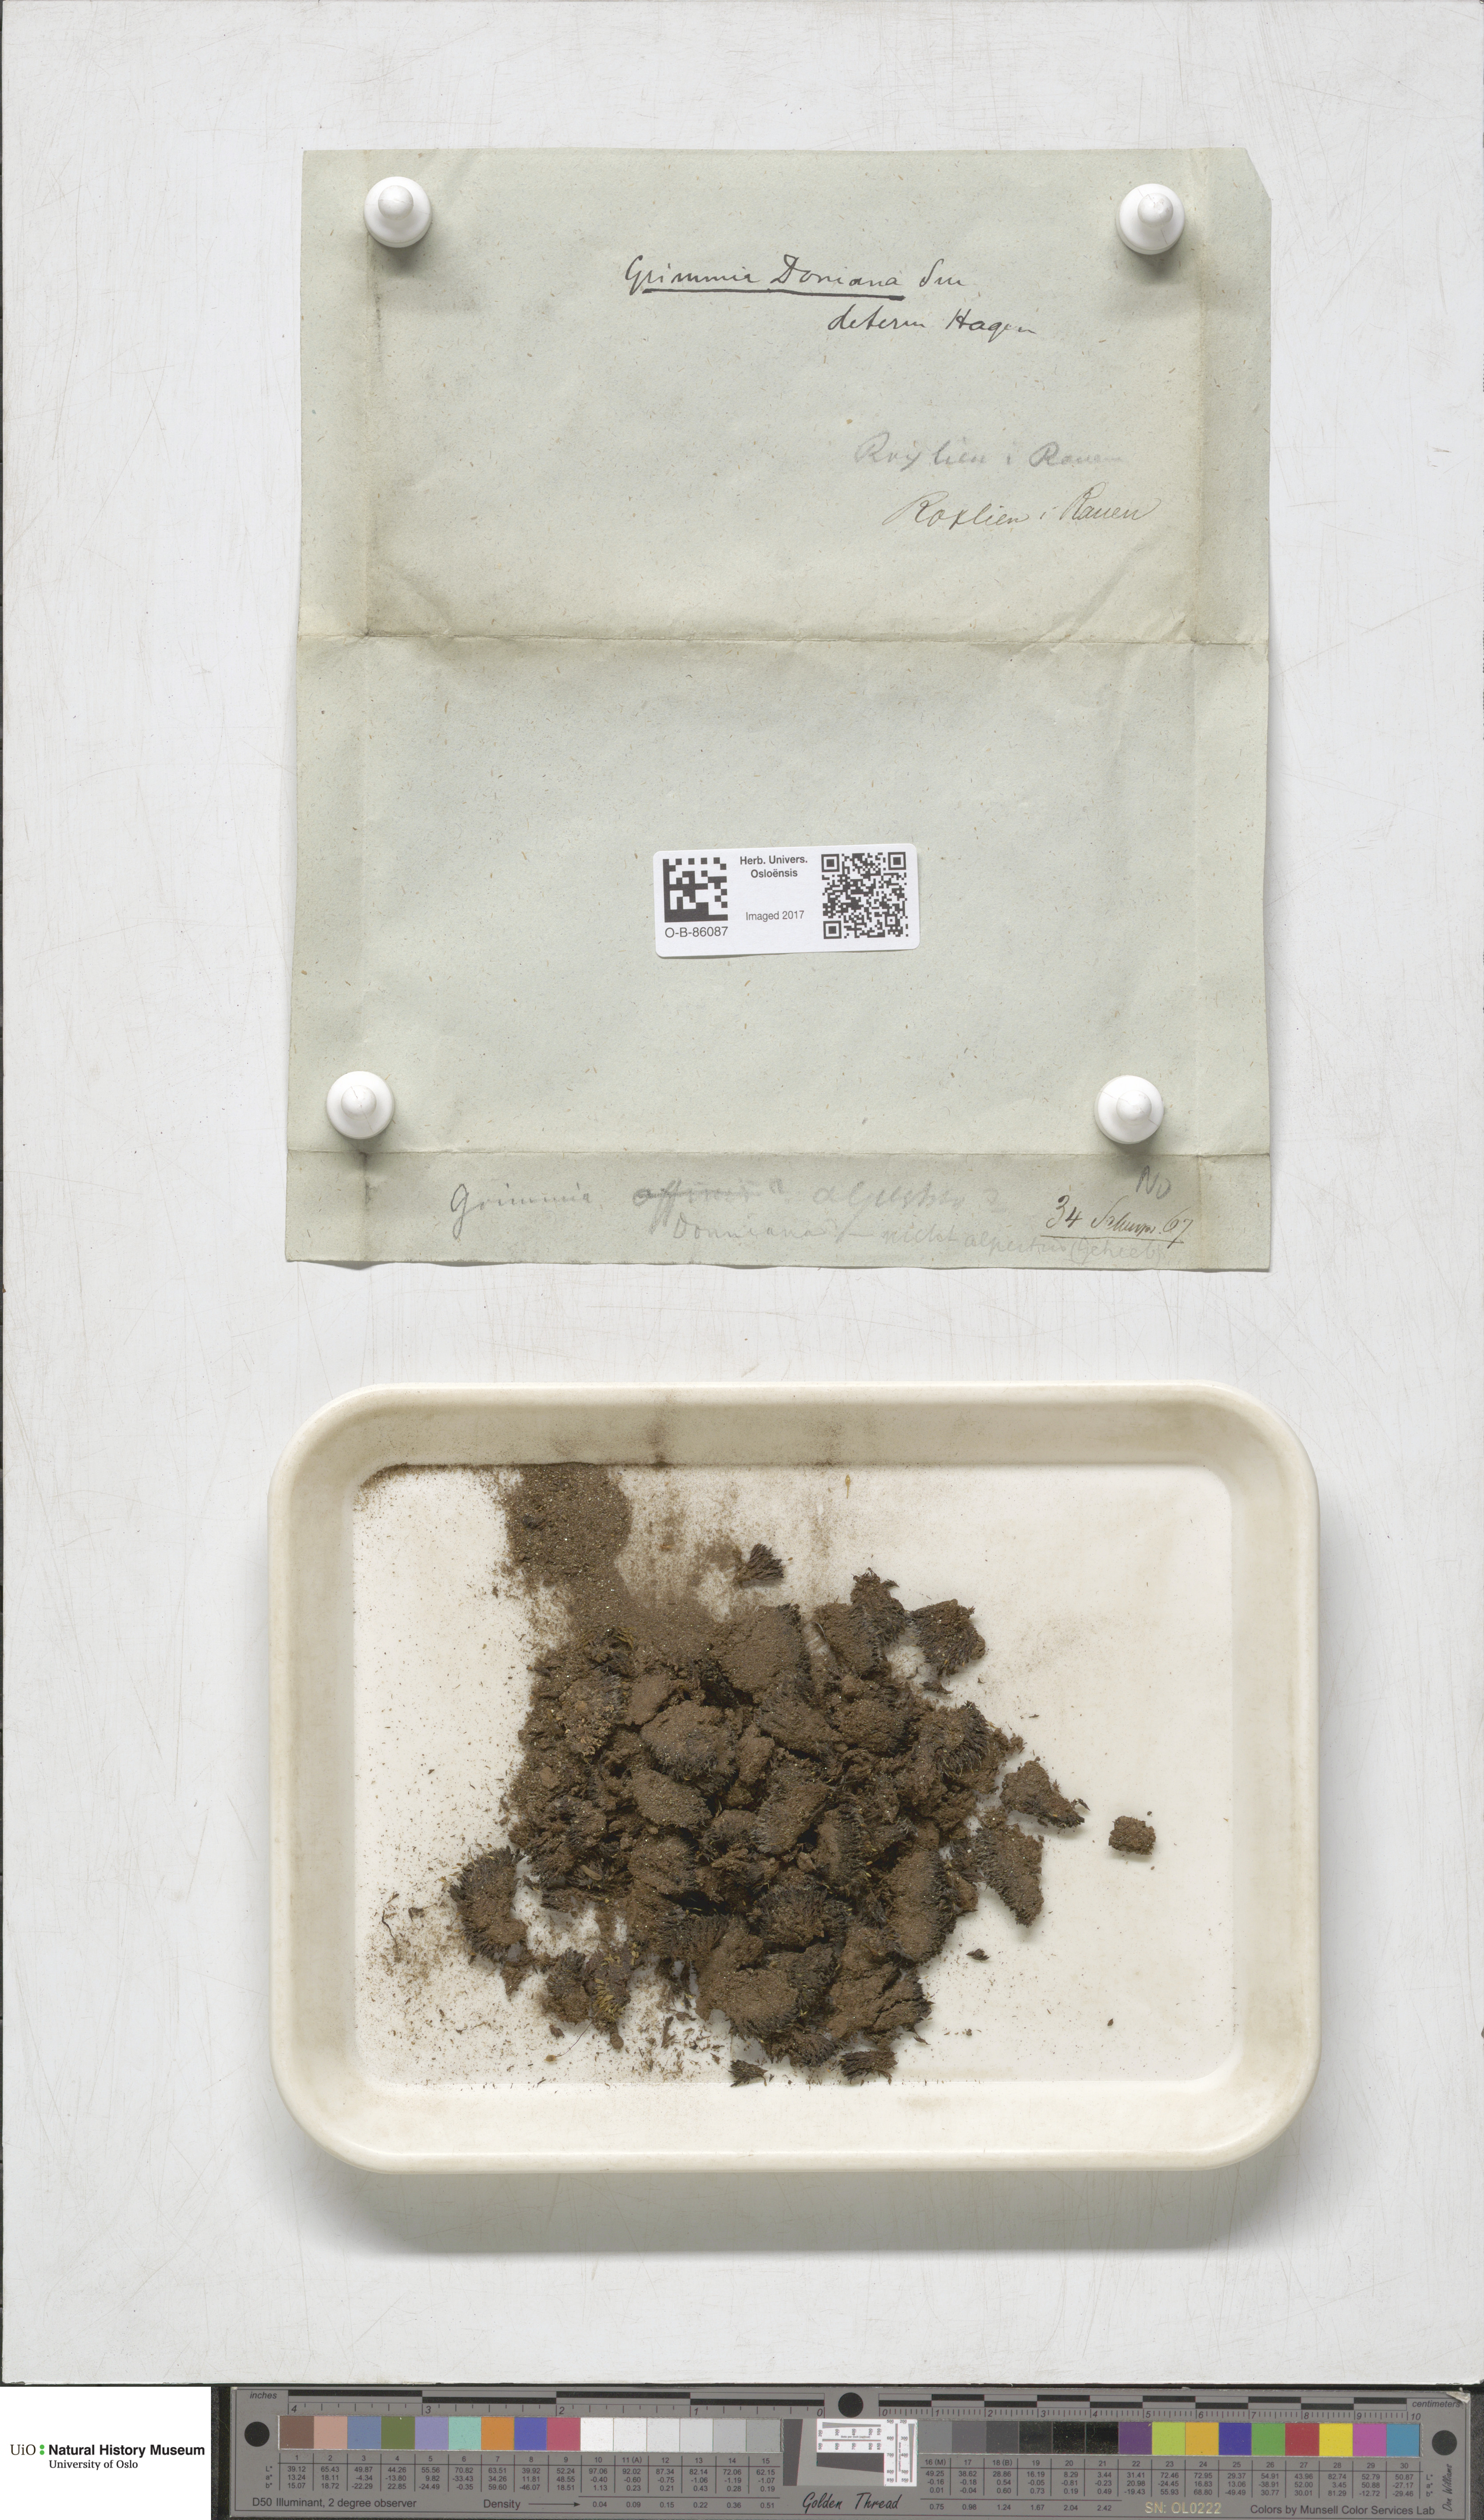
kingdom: Plantae
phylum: Bryophyta
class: Bryopsida
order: Grimmiales
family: Grimmiaceae
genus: Grimmia
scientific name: Grimmia alpestris
